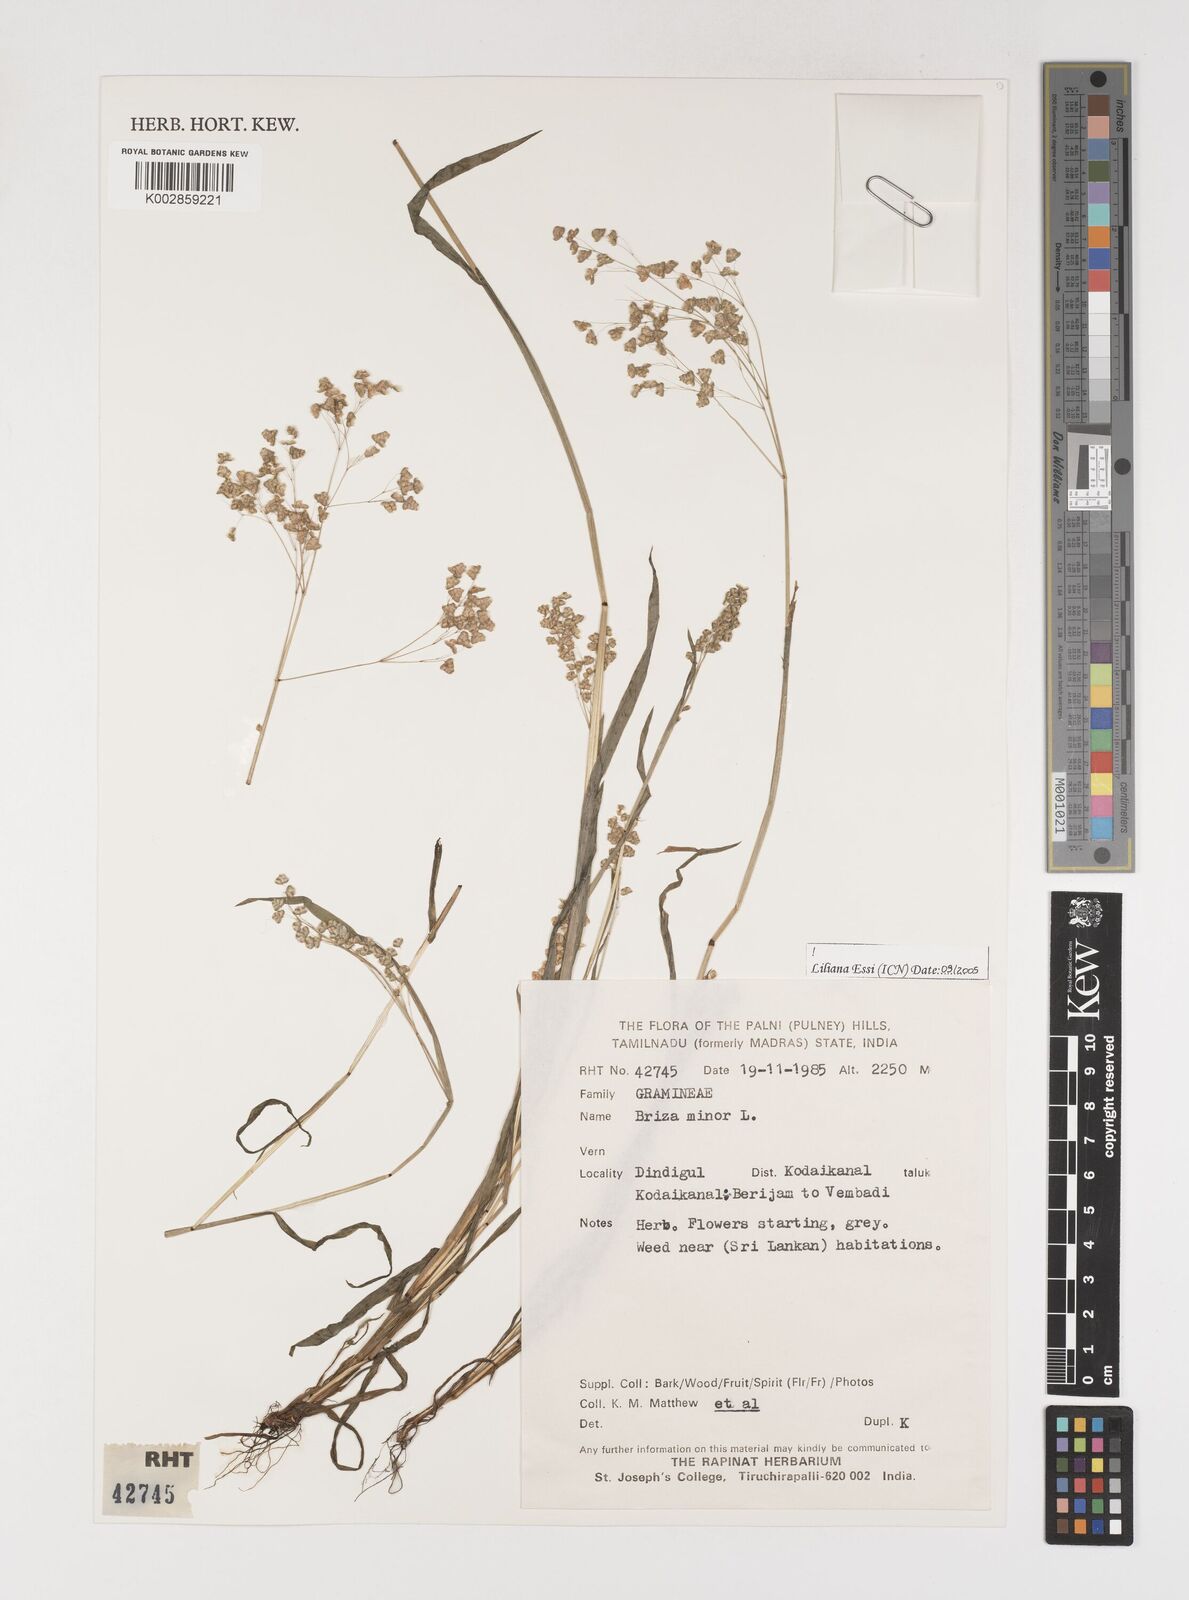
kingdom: Plantae
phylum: Tracheophyta
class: Liliopsida
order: Poales
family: Poaceae
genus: Briza
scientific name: Briza minor
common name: Lesser quaking-grass
